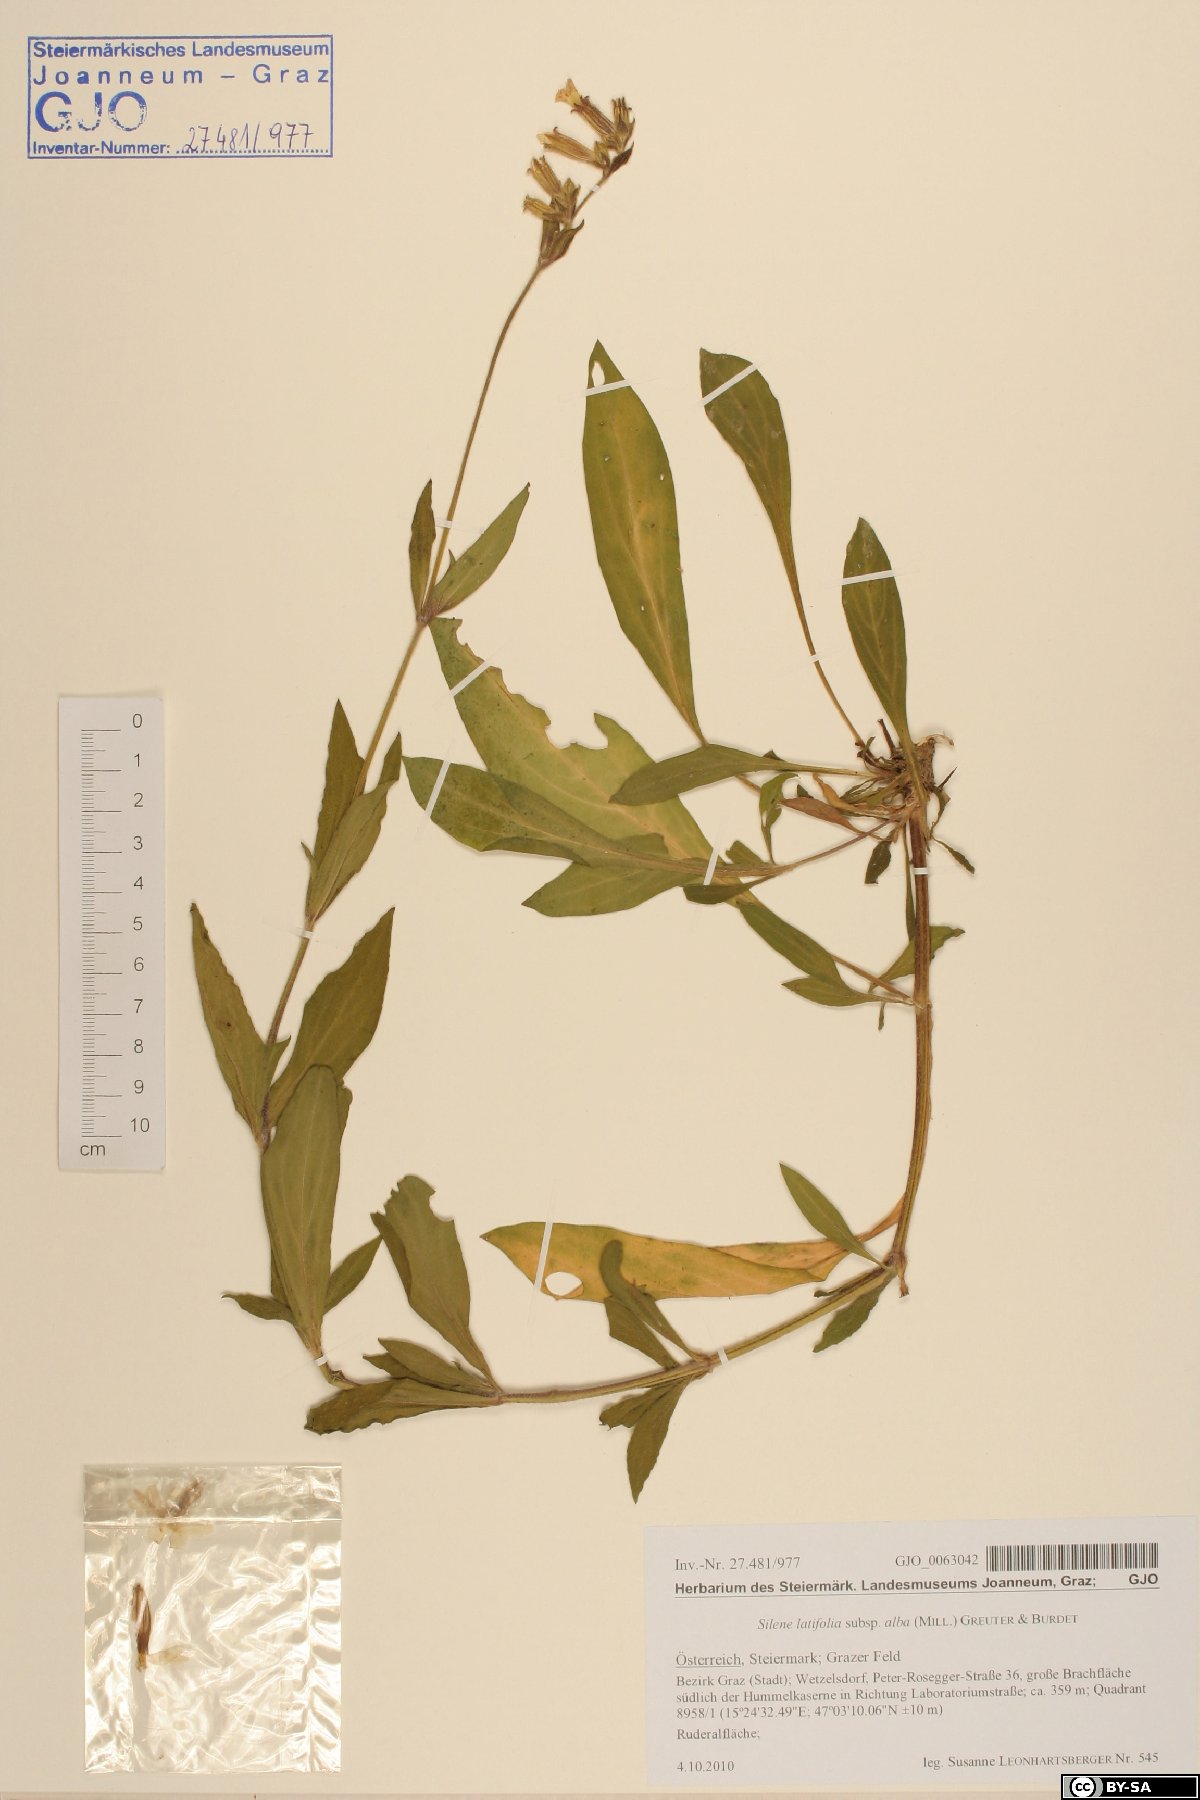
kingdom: Plantae
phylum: Tracheophyta
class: Magnoliopsida
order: Caryophyllales
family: Caryophyllaceae
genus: Silene
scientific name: Silene latifolia
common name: White campion
